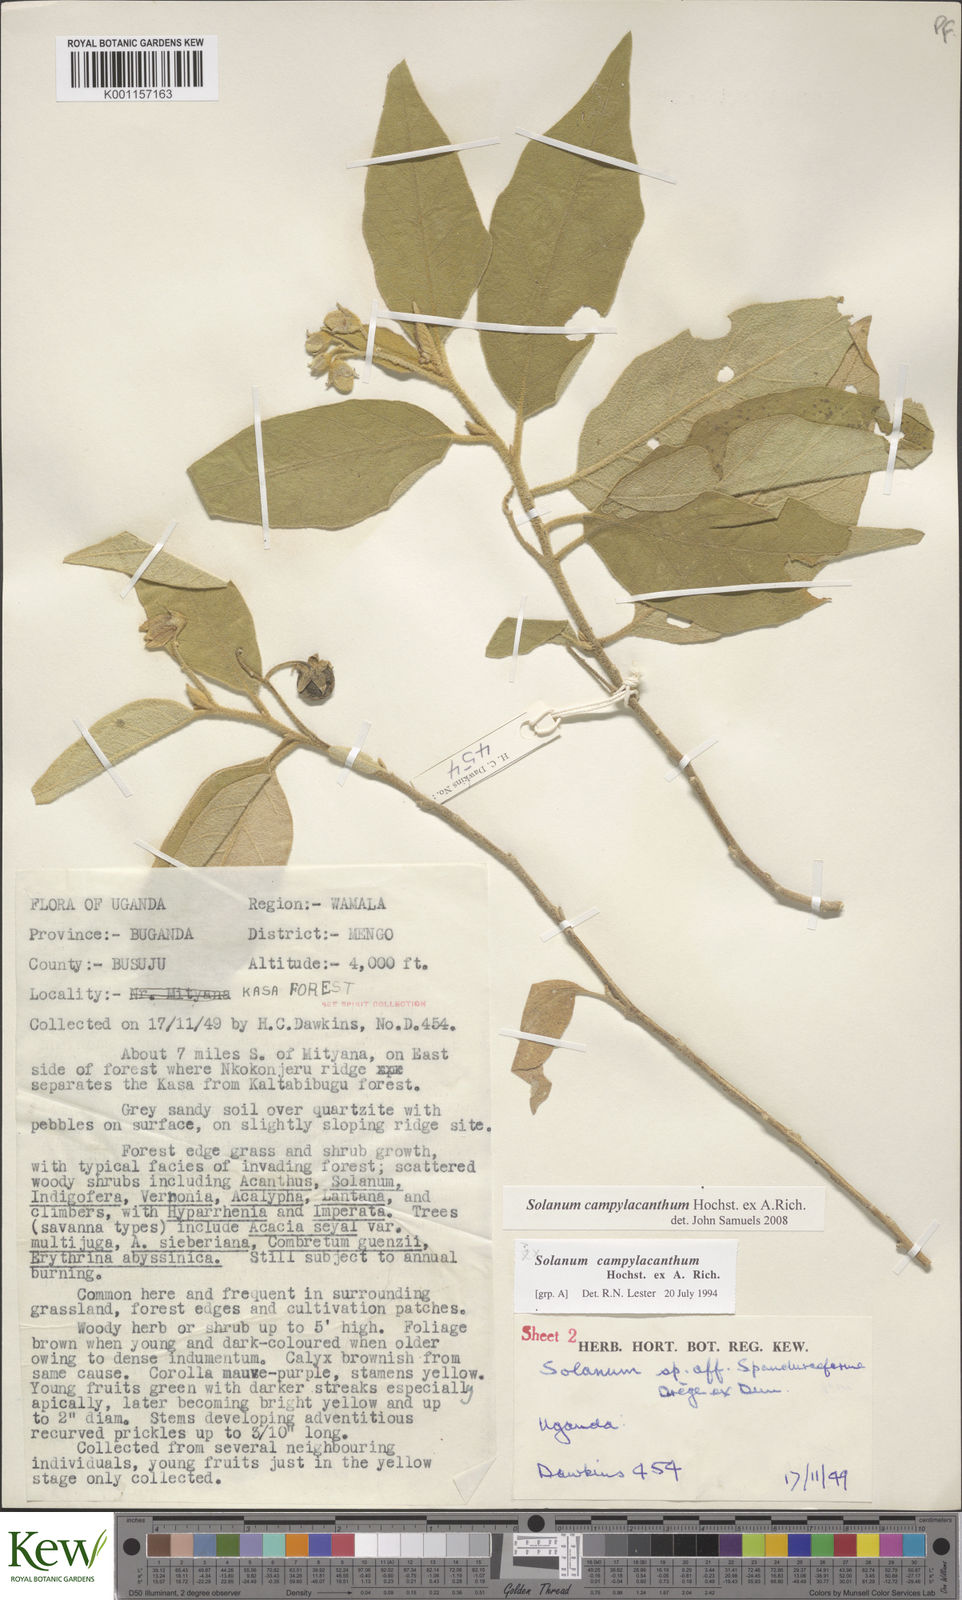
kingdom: Plantae
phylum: Tracheophyta
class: Magnoliopsida
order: Solanales
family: Solanaceae
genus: Solanum
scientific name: Solanum campylacanthum
